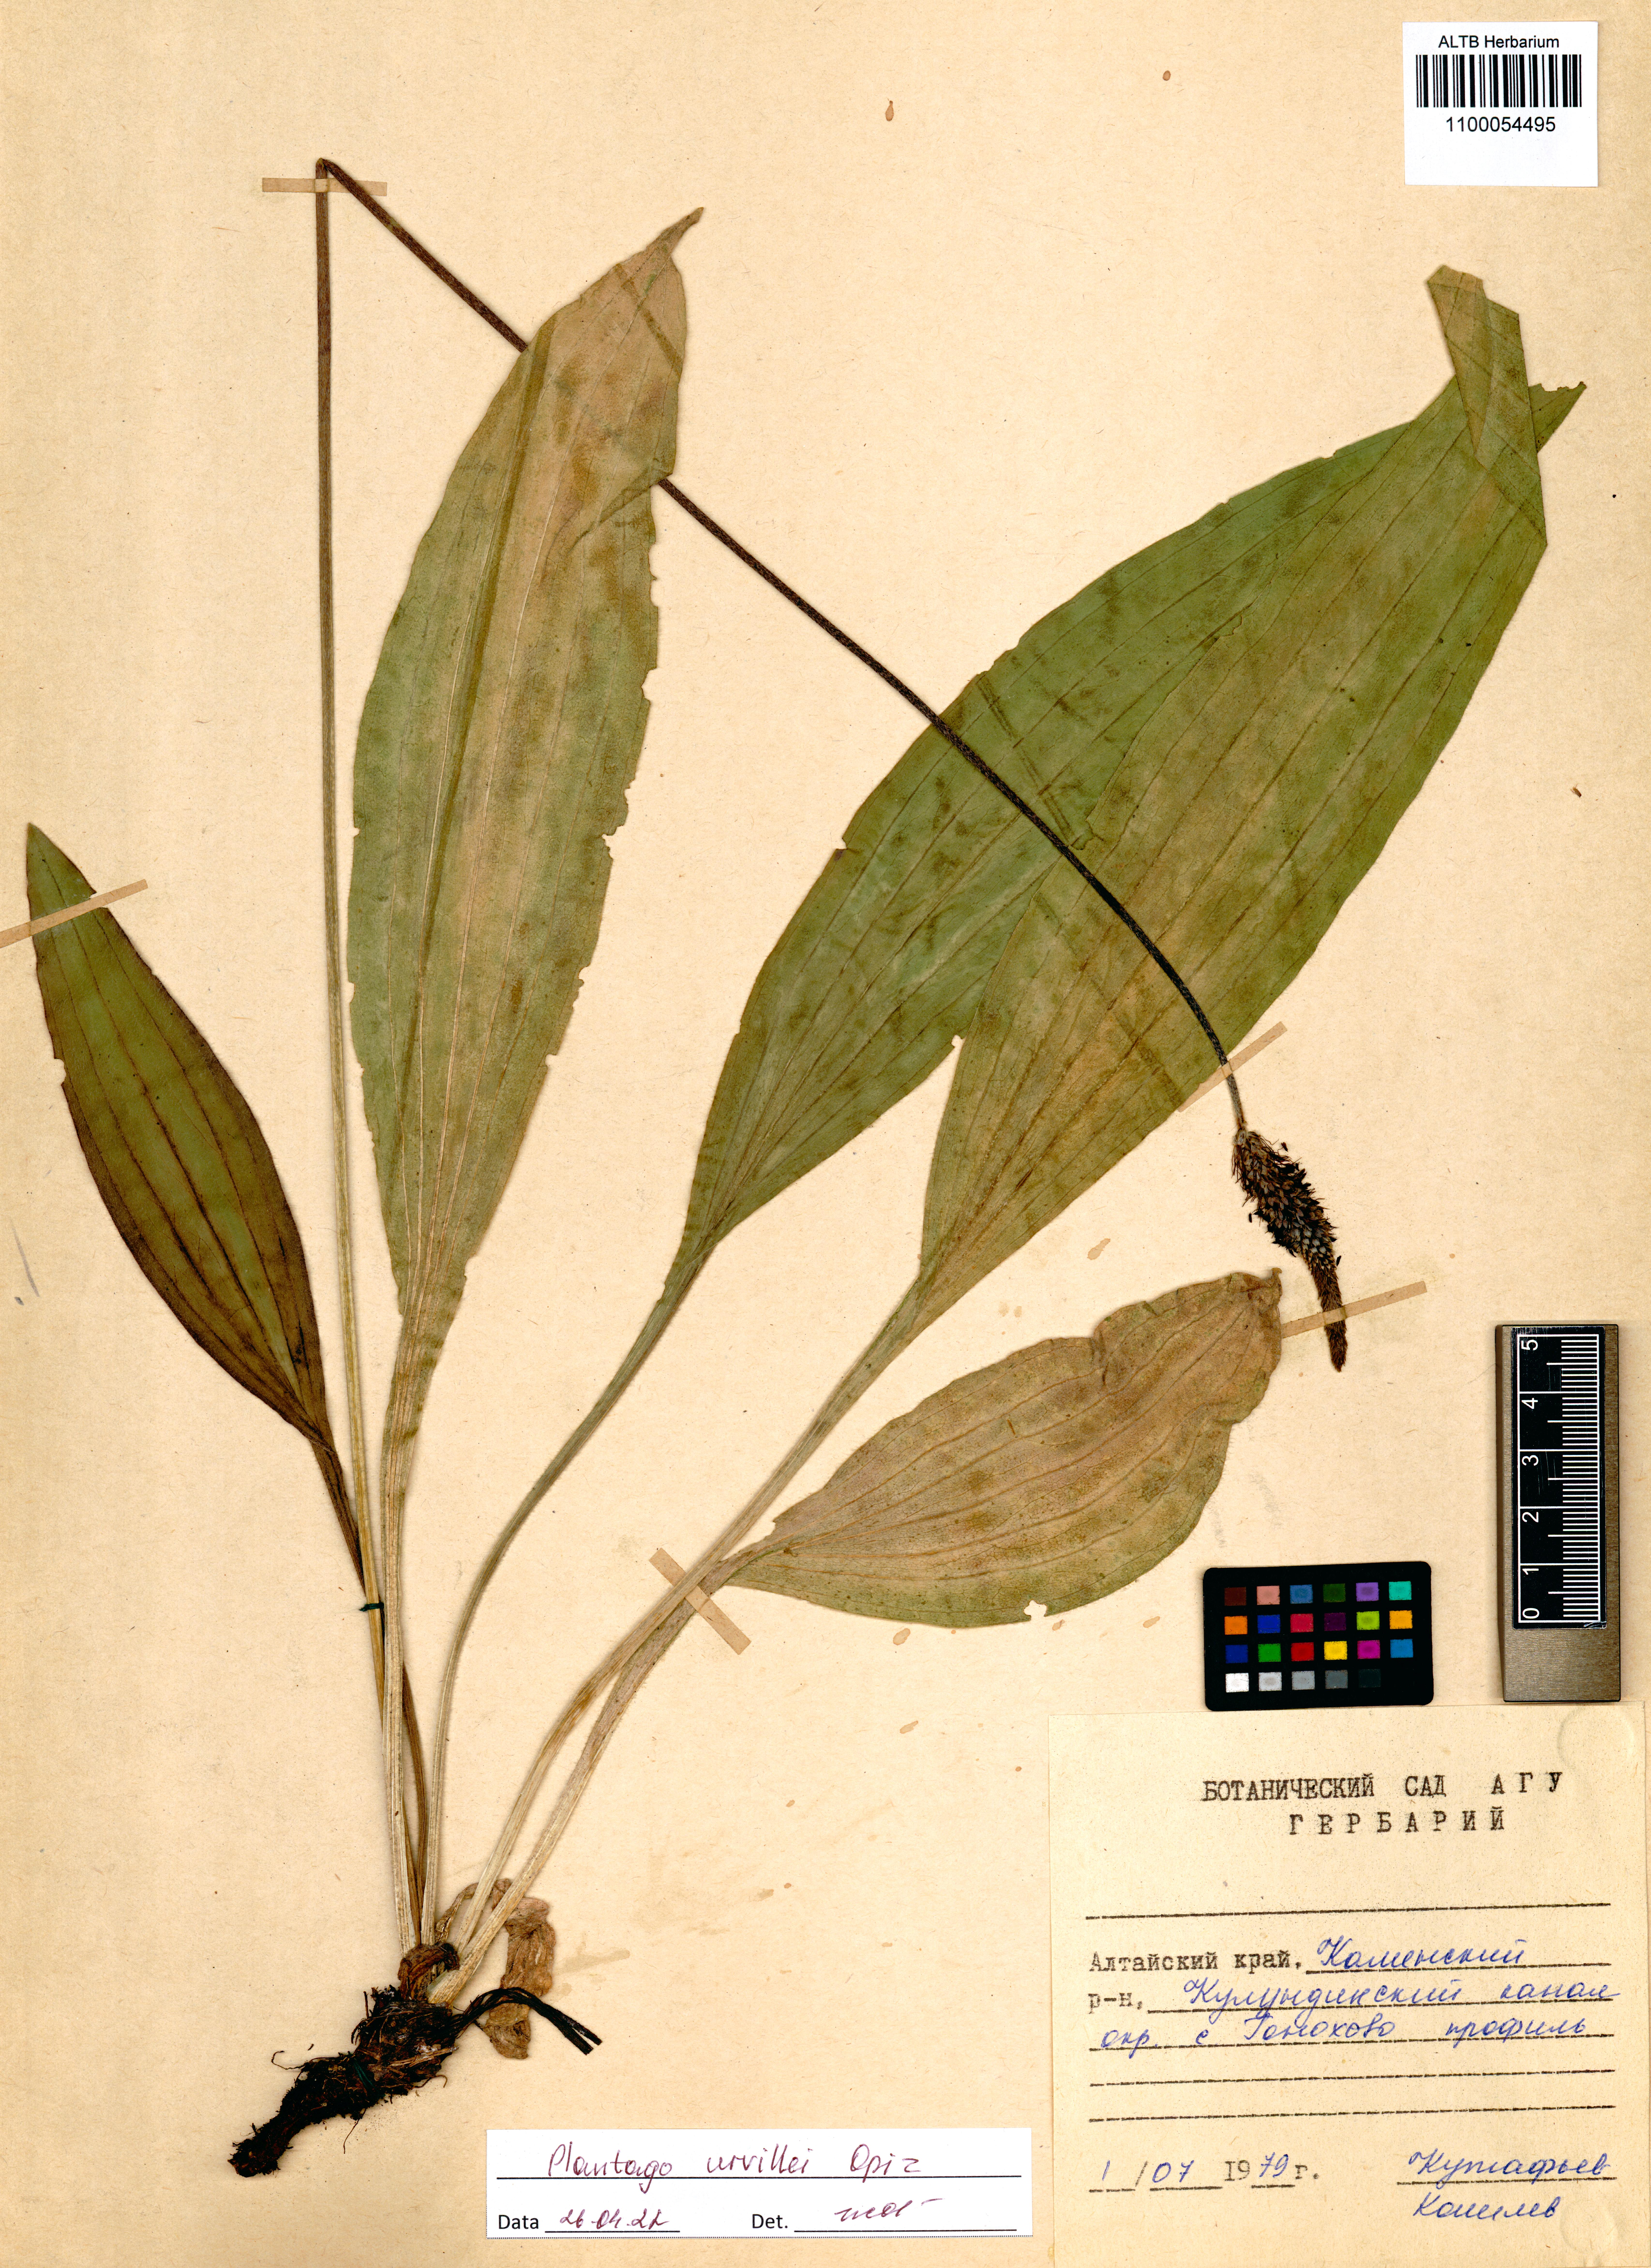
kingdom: Plantae
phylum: Tracheophyta
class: Magnoliopsida
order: Lamiales
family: Plantaginaceae
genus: Plantago
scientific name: Plantago urvillei
